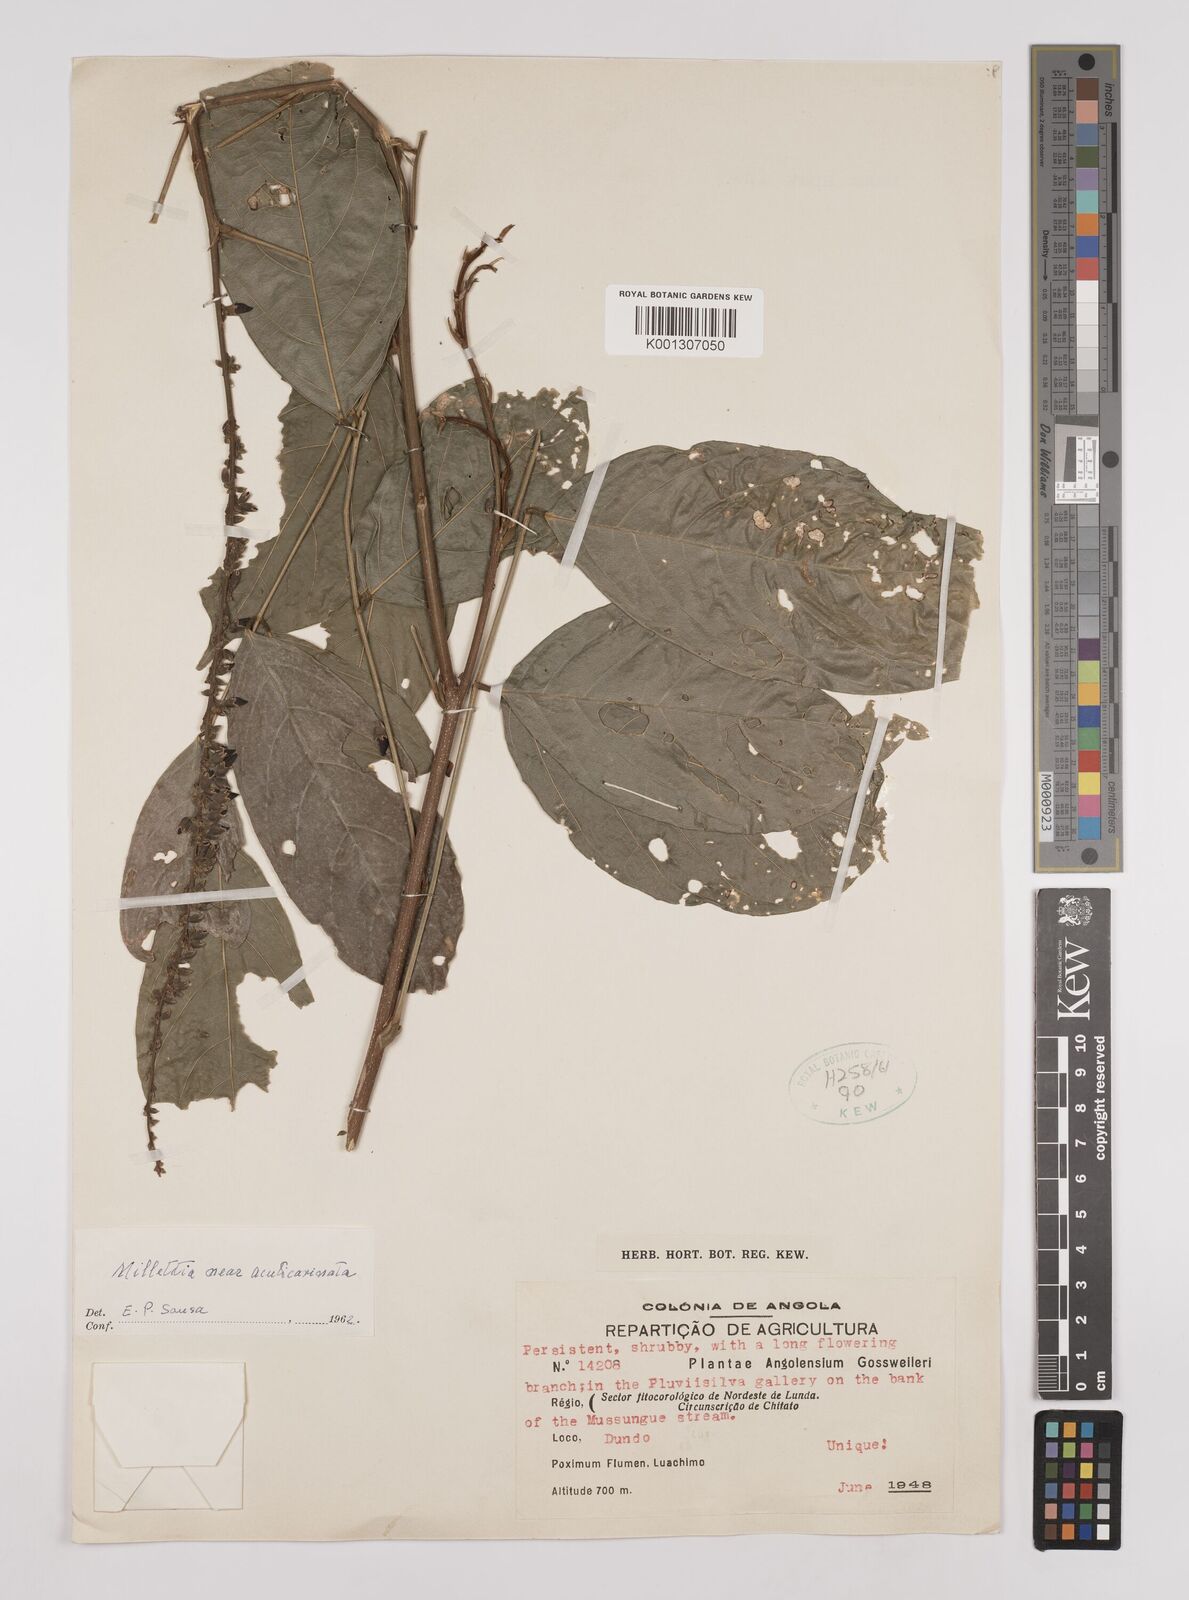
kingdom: Plantae
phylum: Tracheophyta
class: Magnoliopsida
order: Fabales
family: Fabaceae
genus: Millettia
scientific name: Millettia acuticarinata
